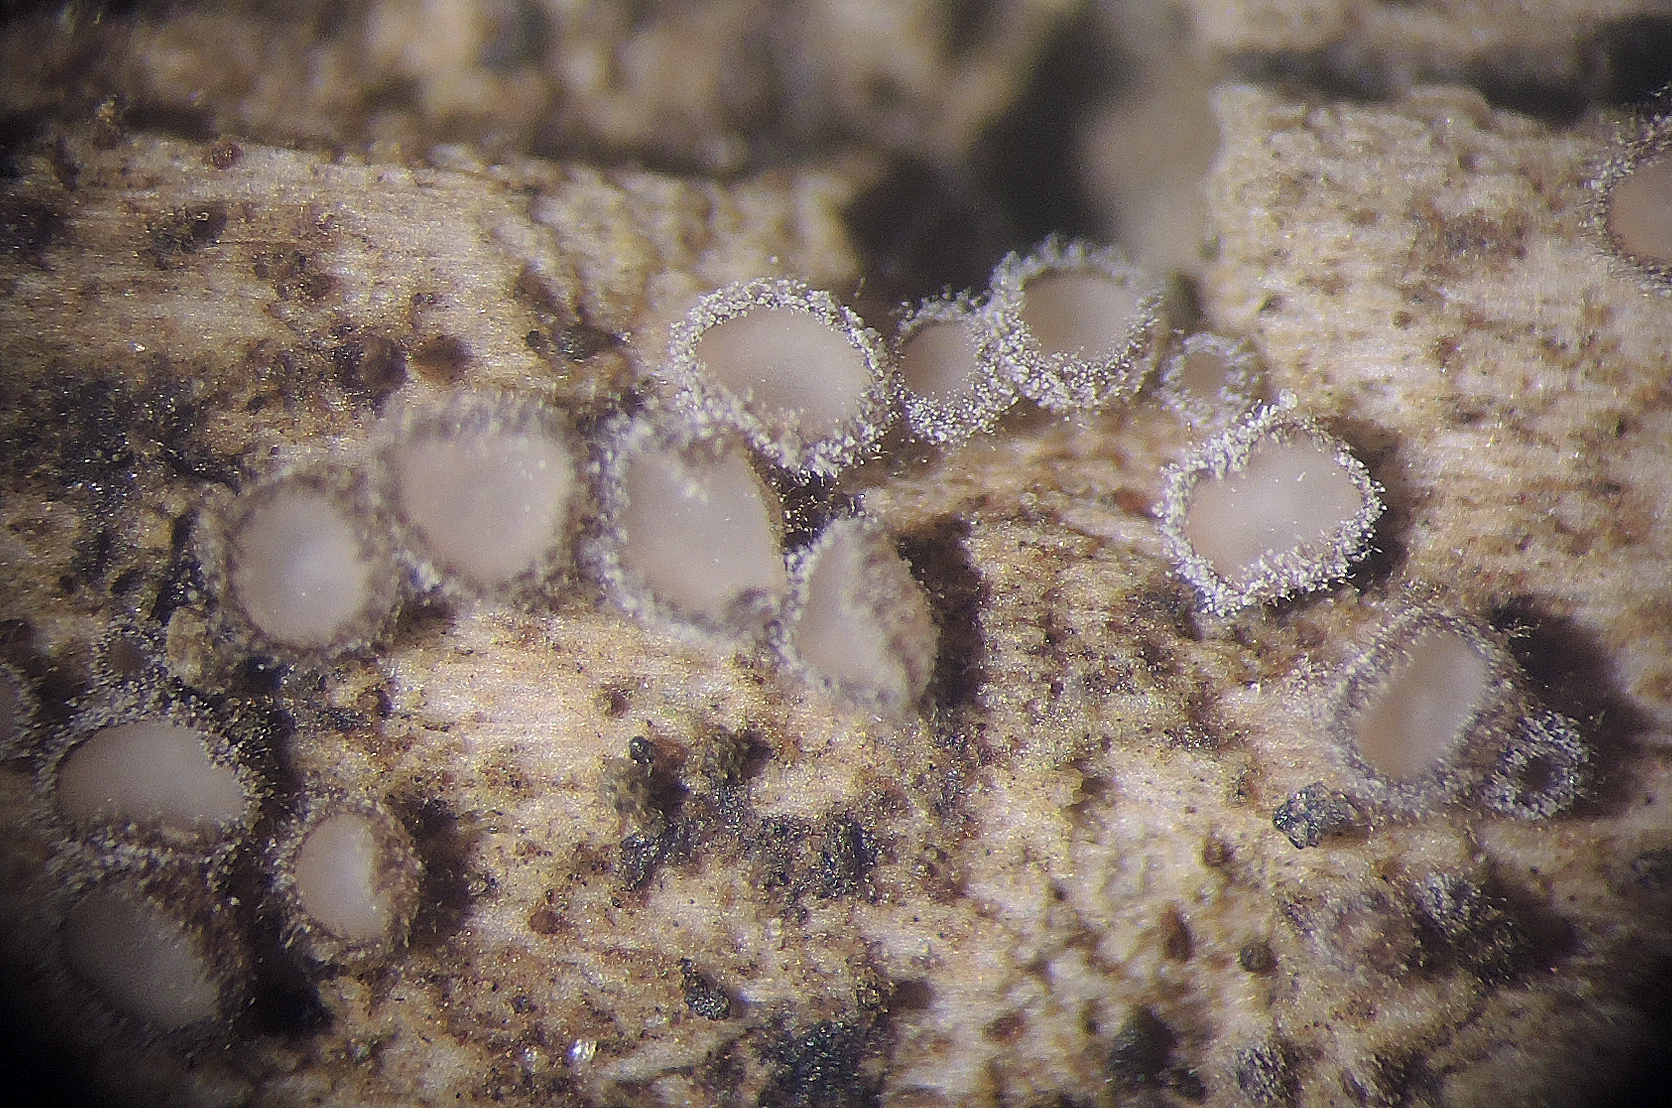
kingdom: Fungi
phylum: Ascomycota
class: Leotiomycetes
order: Helotiales
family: Solenopeziaceae
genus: Lasiobelonium
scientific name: Lasiobelonium variegatum
